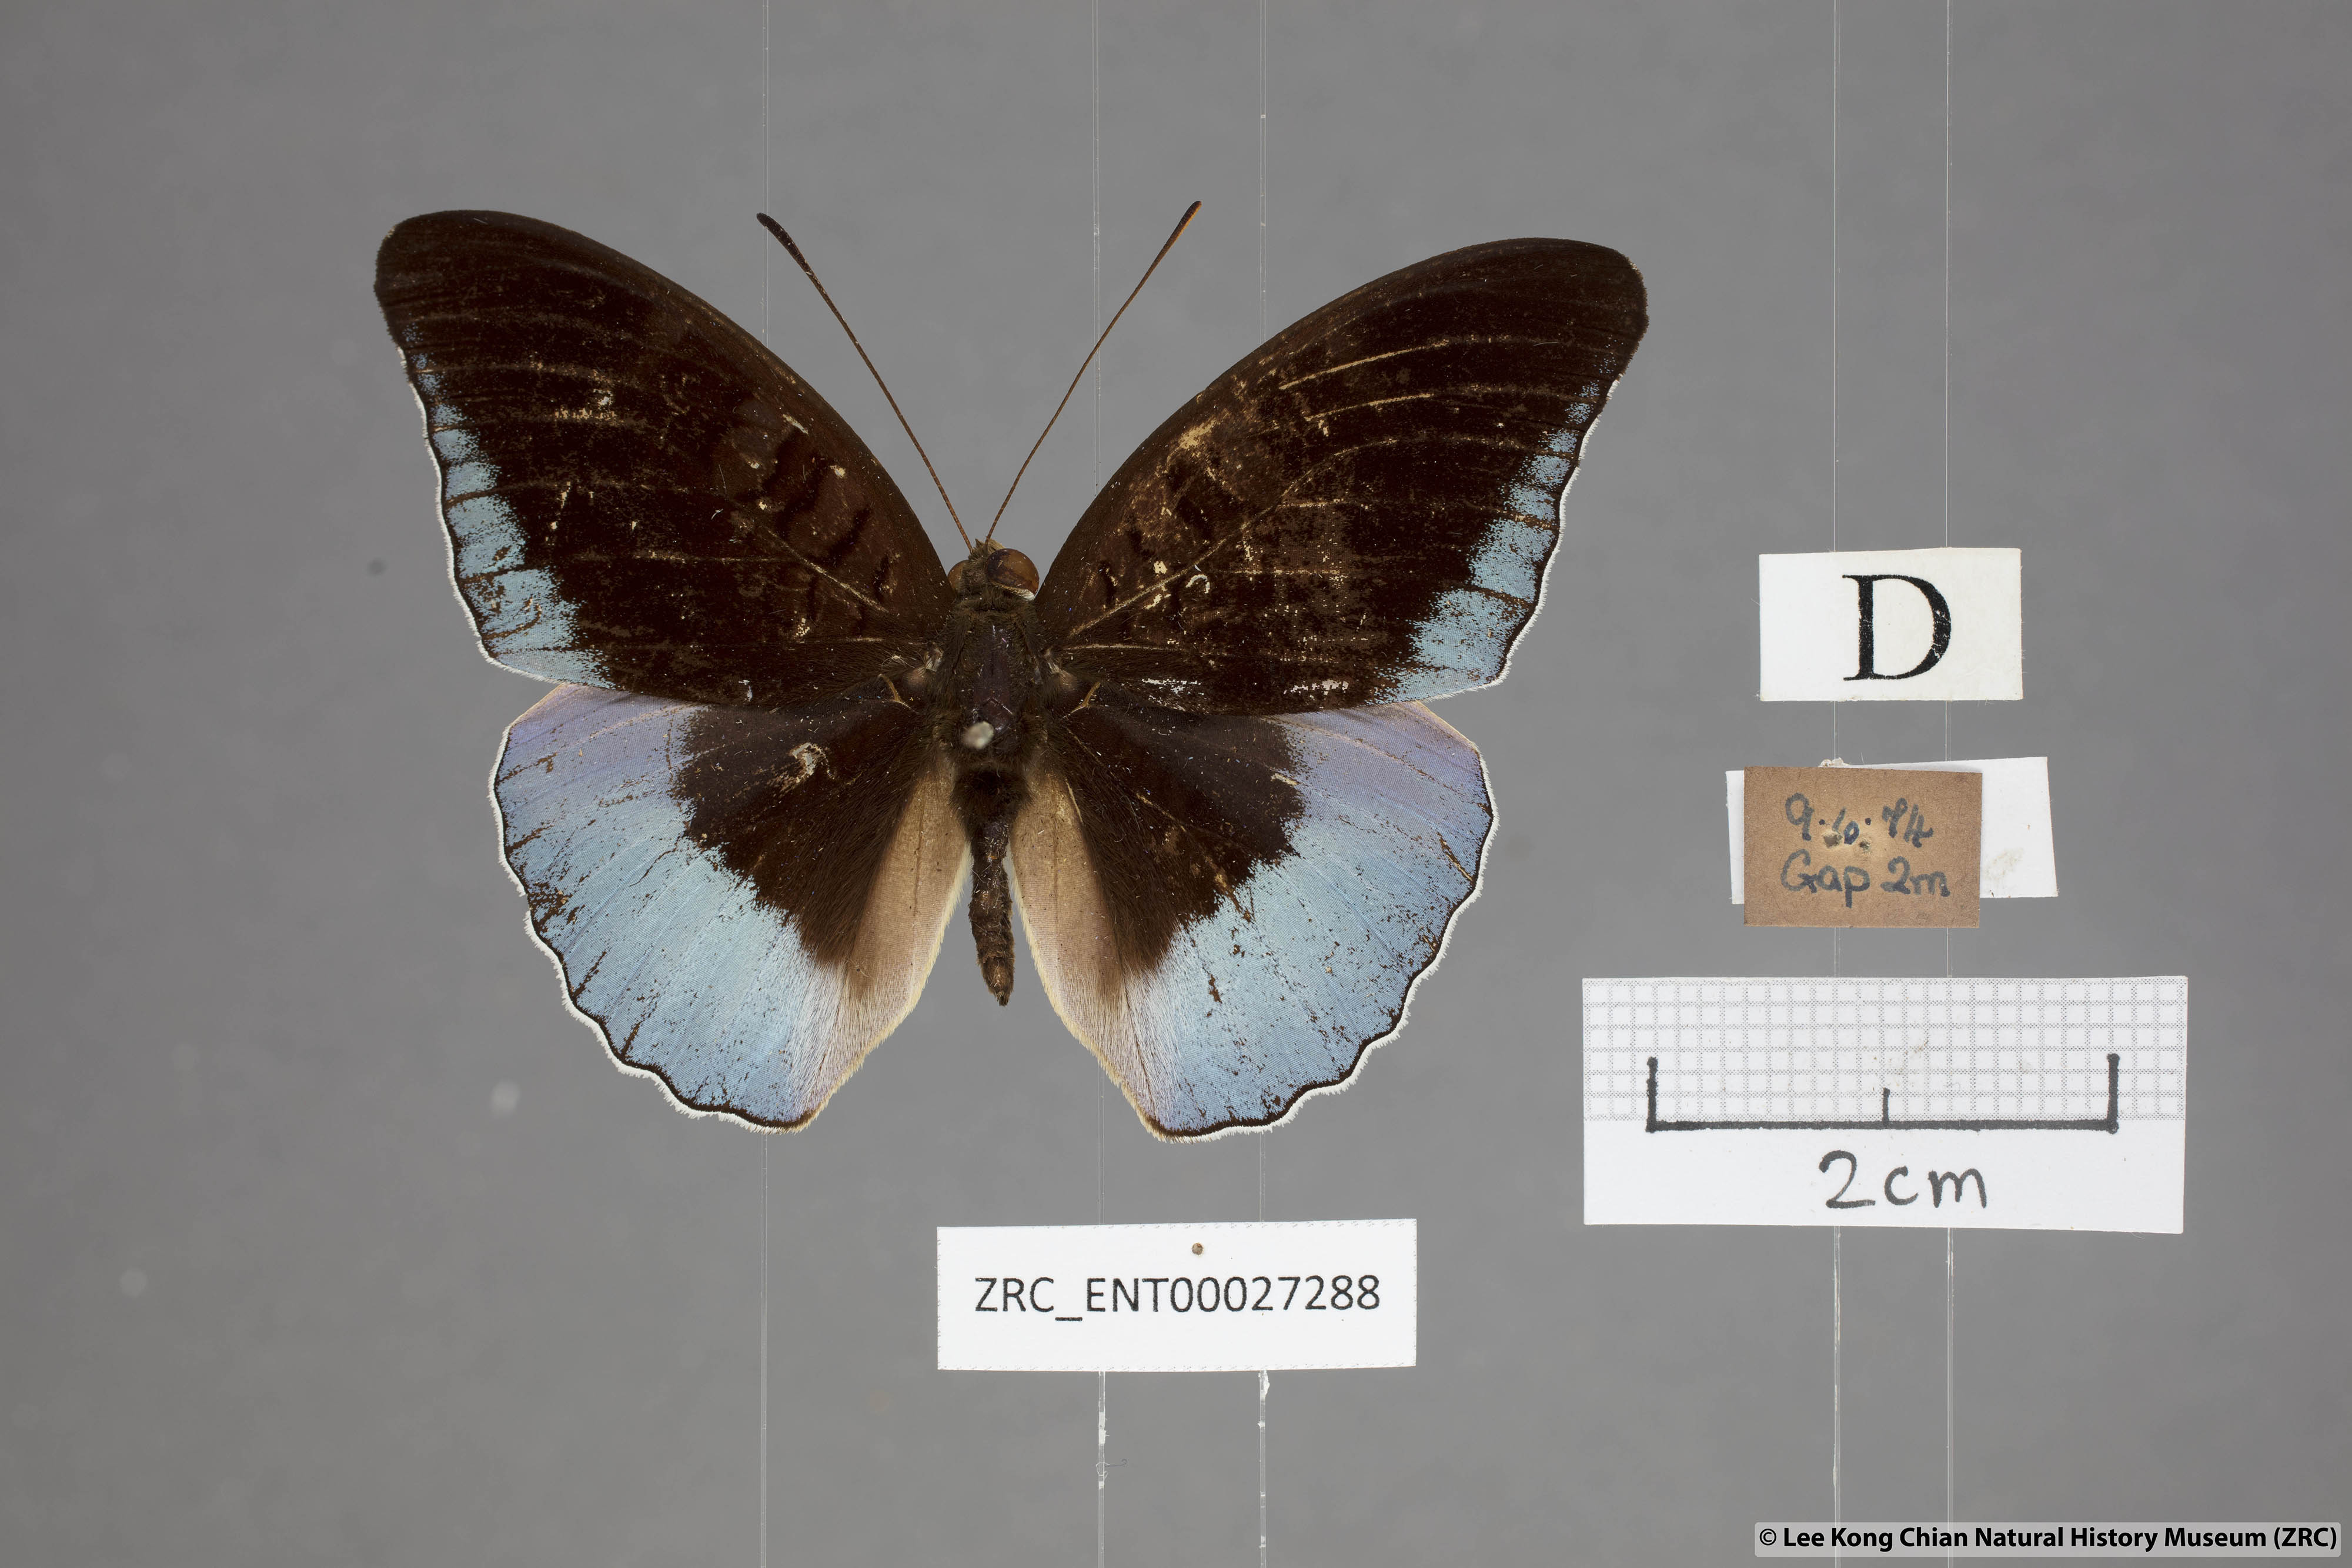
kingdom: Animalia
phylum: Arthropoda
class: Insecta
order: Lepidoptera
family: Nymphalidae
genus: Tanaecia
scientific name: Tanaecia iapis
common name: Horsfield's baron
